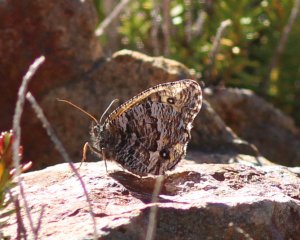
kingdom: Animalia
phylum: Arthropoda
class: Insecta
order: Lepidoptera
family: Nymphalidae
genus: Oeneis
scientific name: Oeneis chryxus
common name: Chryxus Arctic
